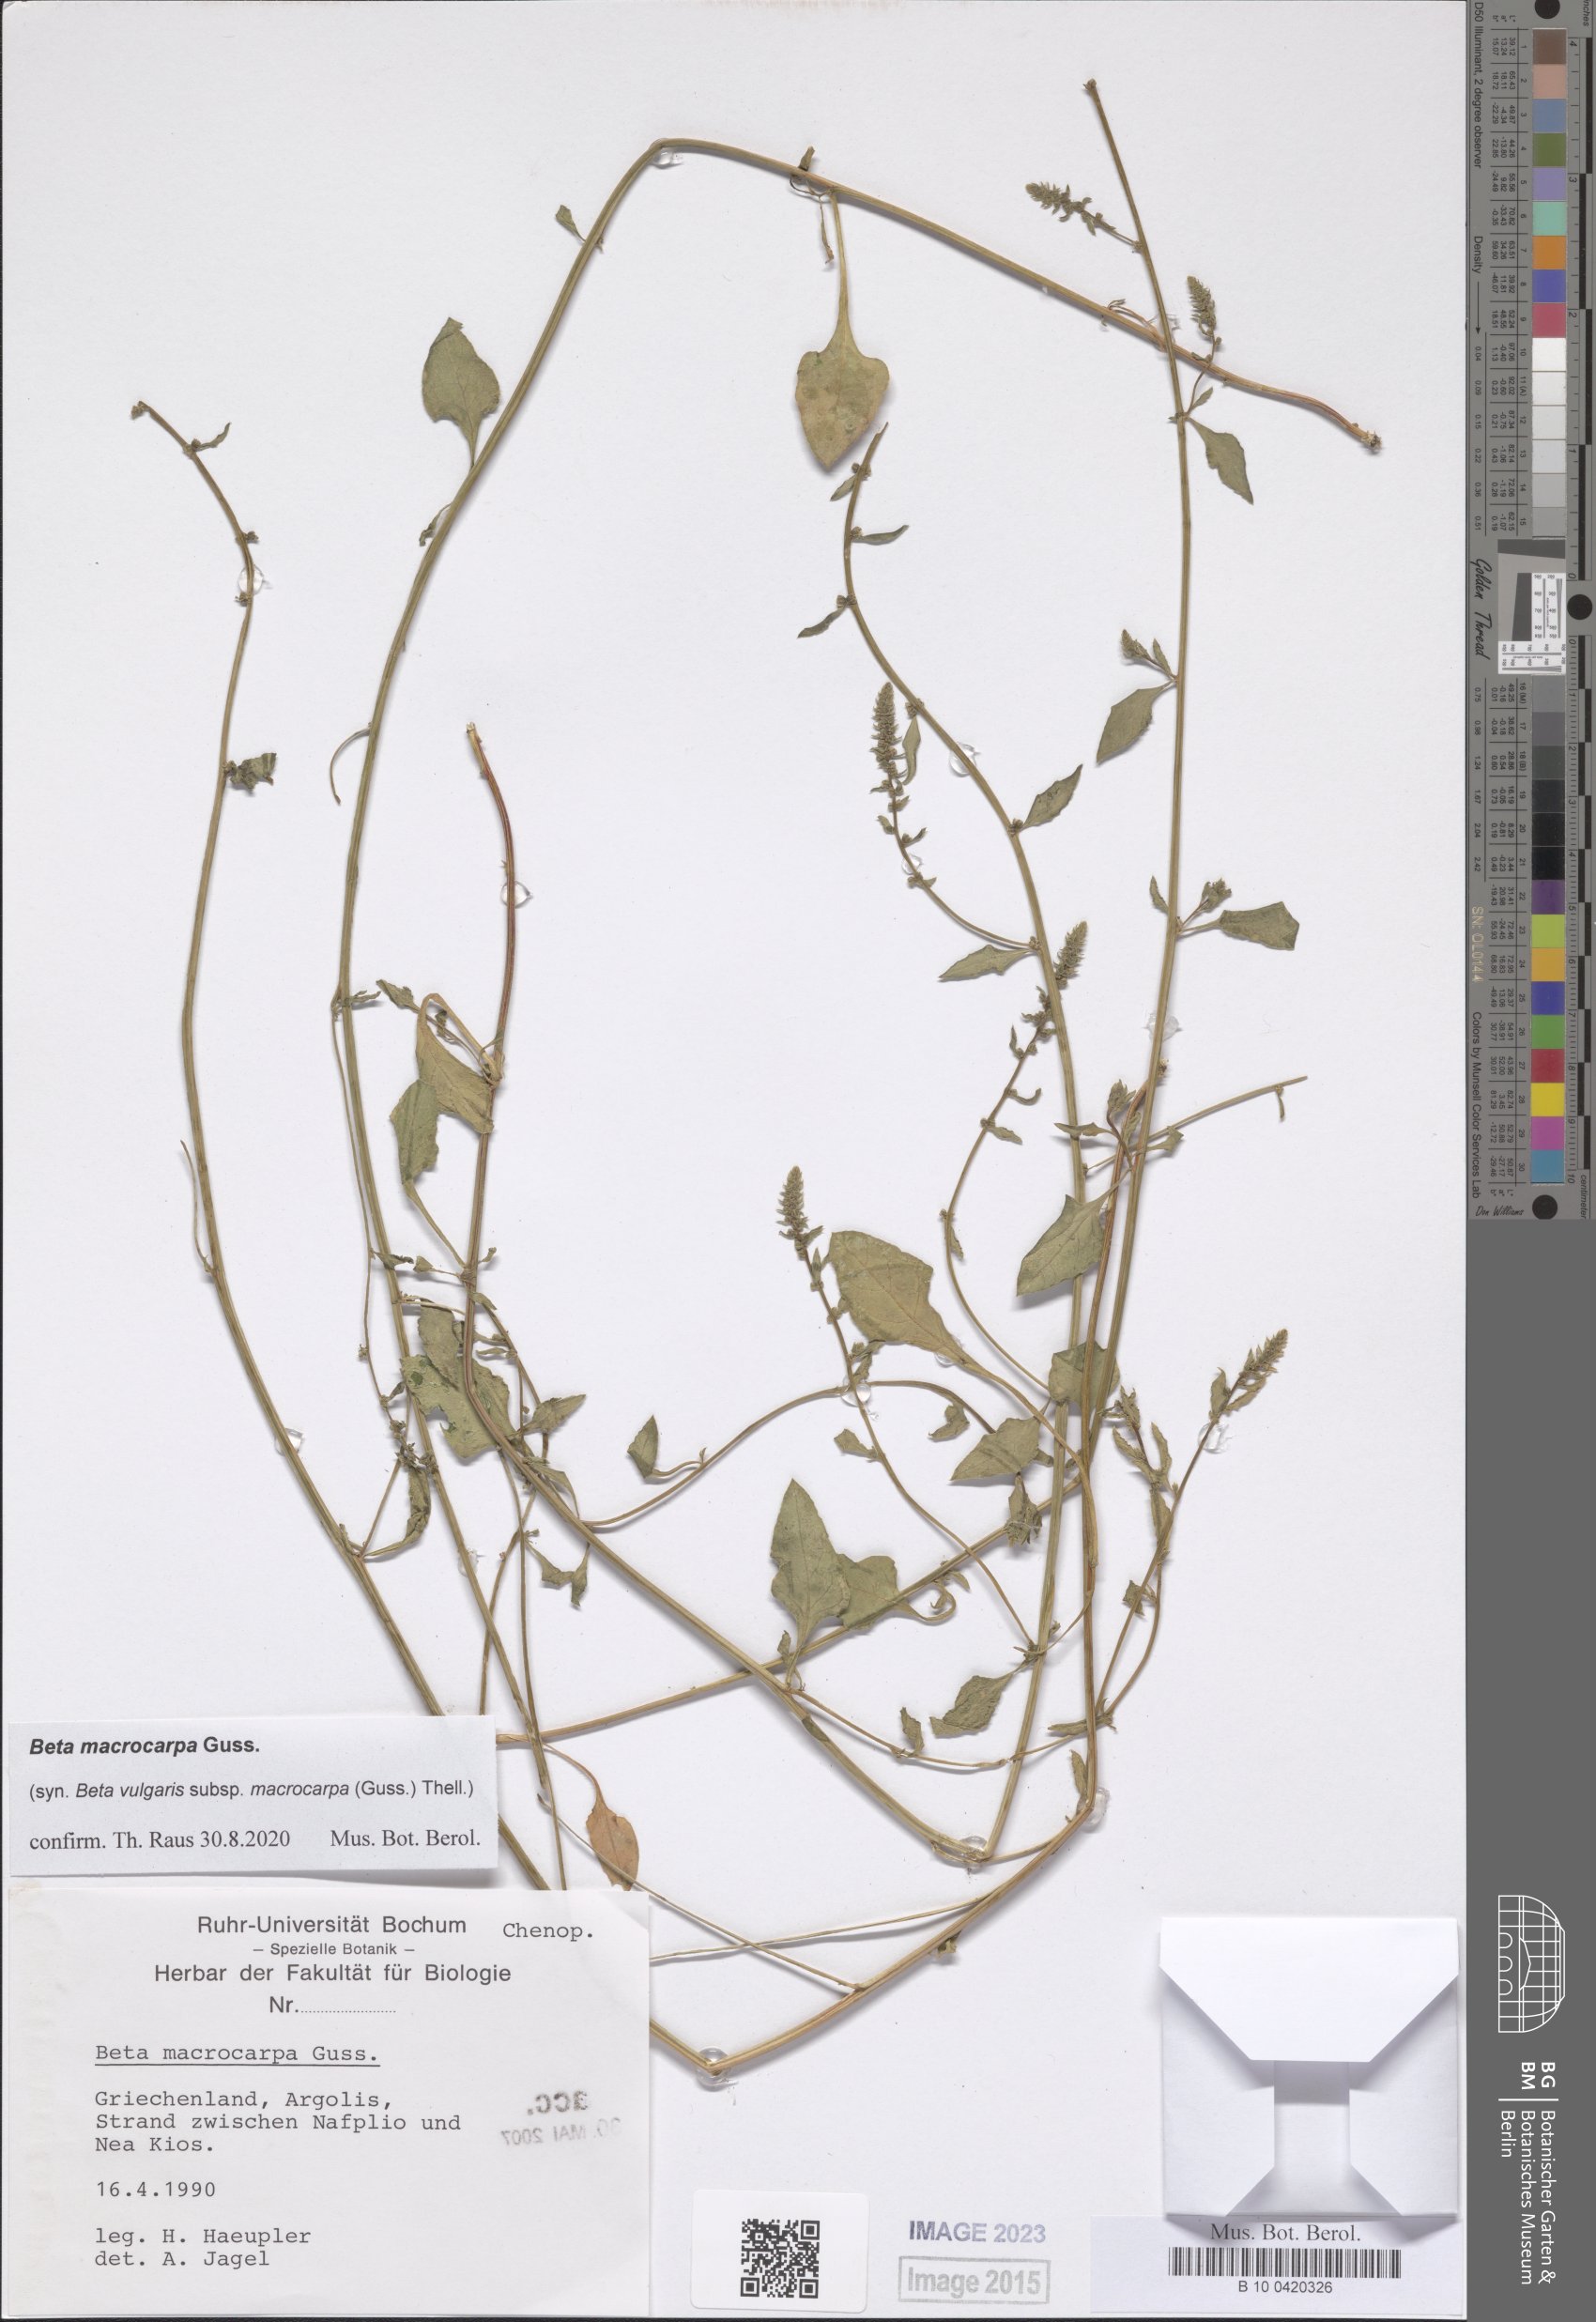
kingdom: Plantae
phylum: Tracheophyta
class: Magnoliopsida
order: Caryophyllales
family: Amaranthaceae
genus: Beta
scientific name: Beta macrocarpa
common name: Beet
